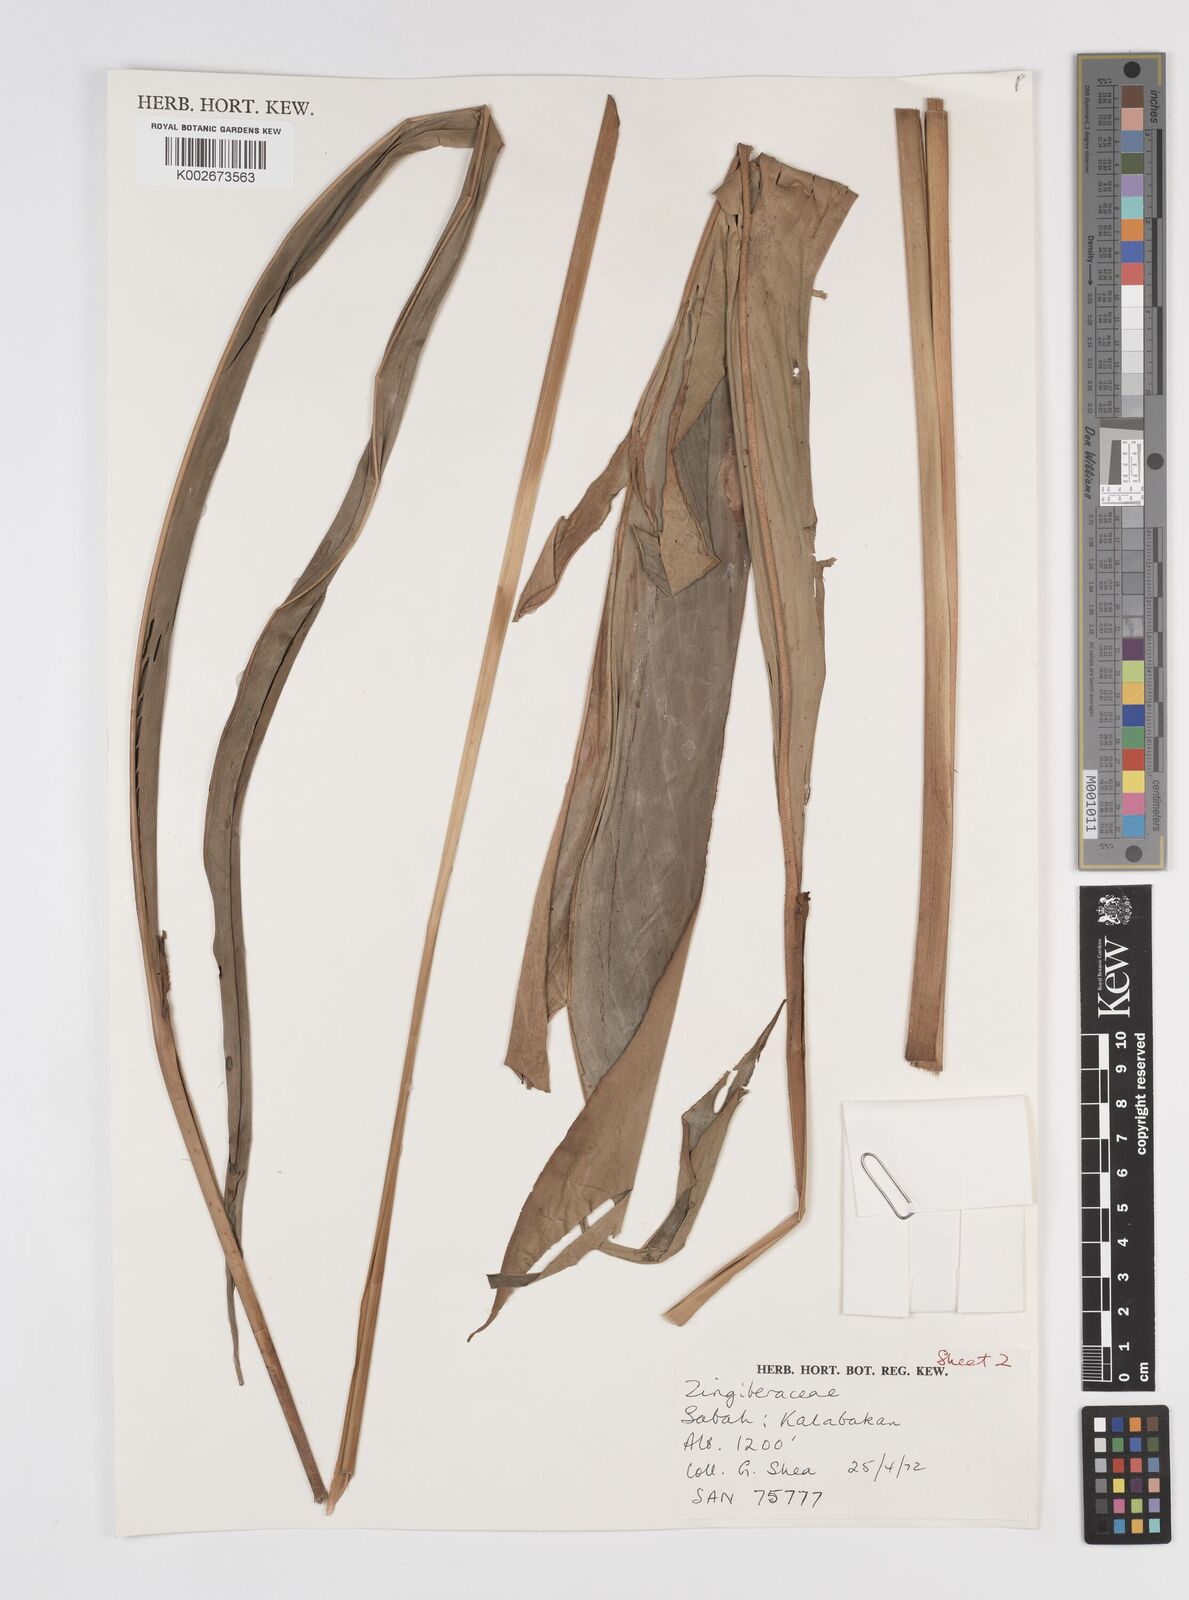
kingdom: Plantae
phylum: Tracheophyta
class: Liliopsida
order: Zingiberales
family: Zingiberaceae
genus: Amomum
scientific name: Amomum
